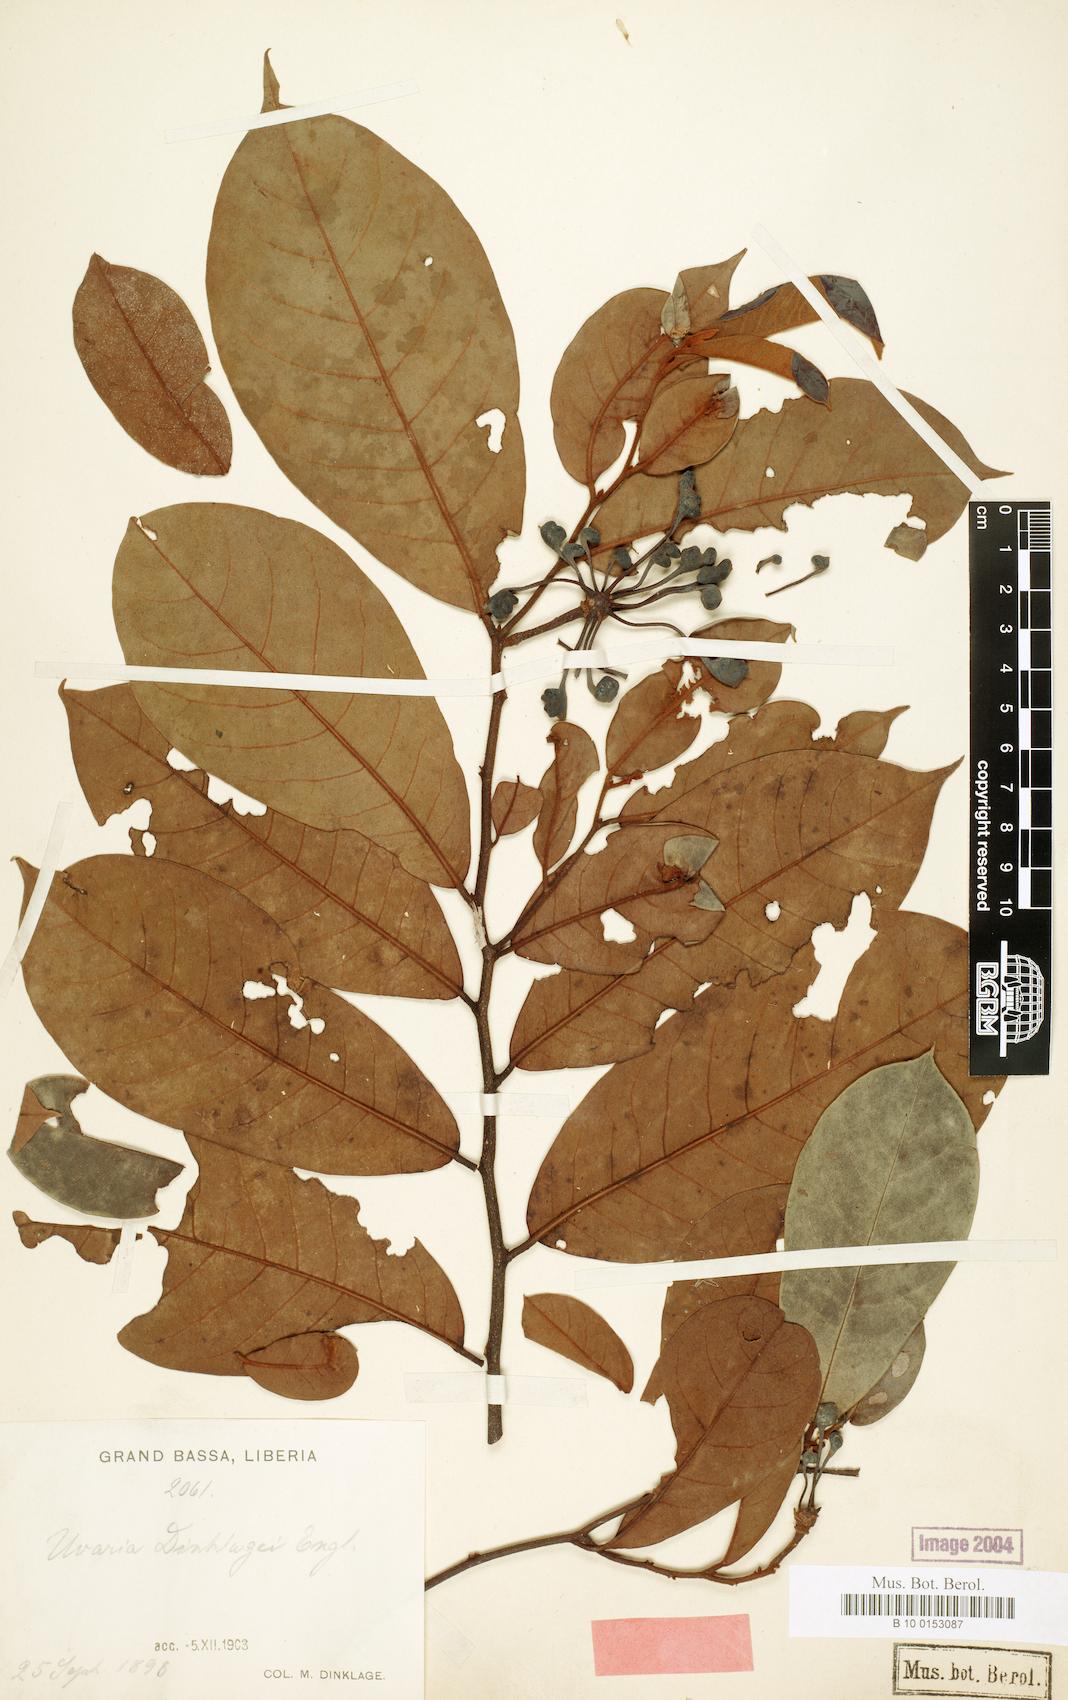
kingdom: Plantae
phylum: Tracheophyta
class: Magnoliopsida
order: Magnoliales
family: Annonaceae
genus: Uvaria
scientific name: Uvaria dinklagei
